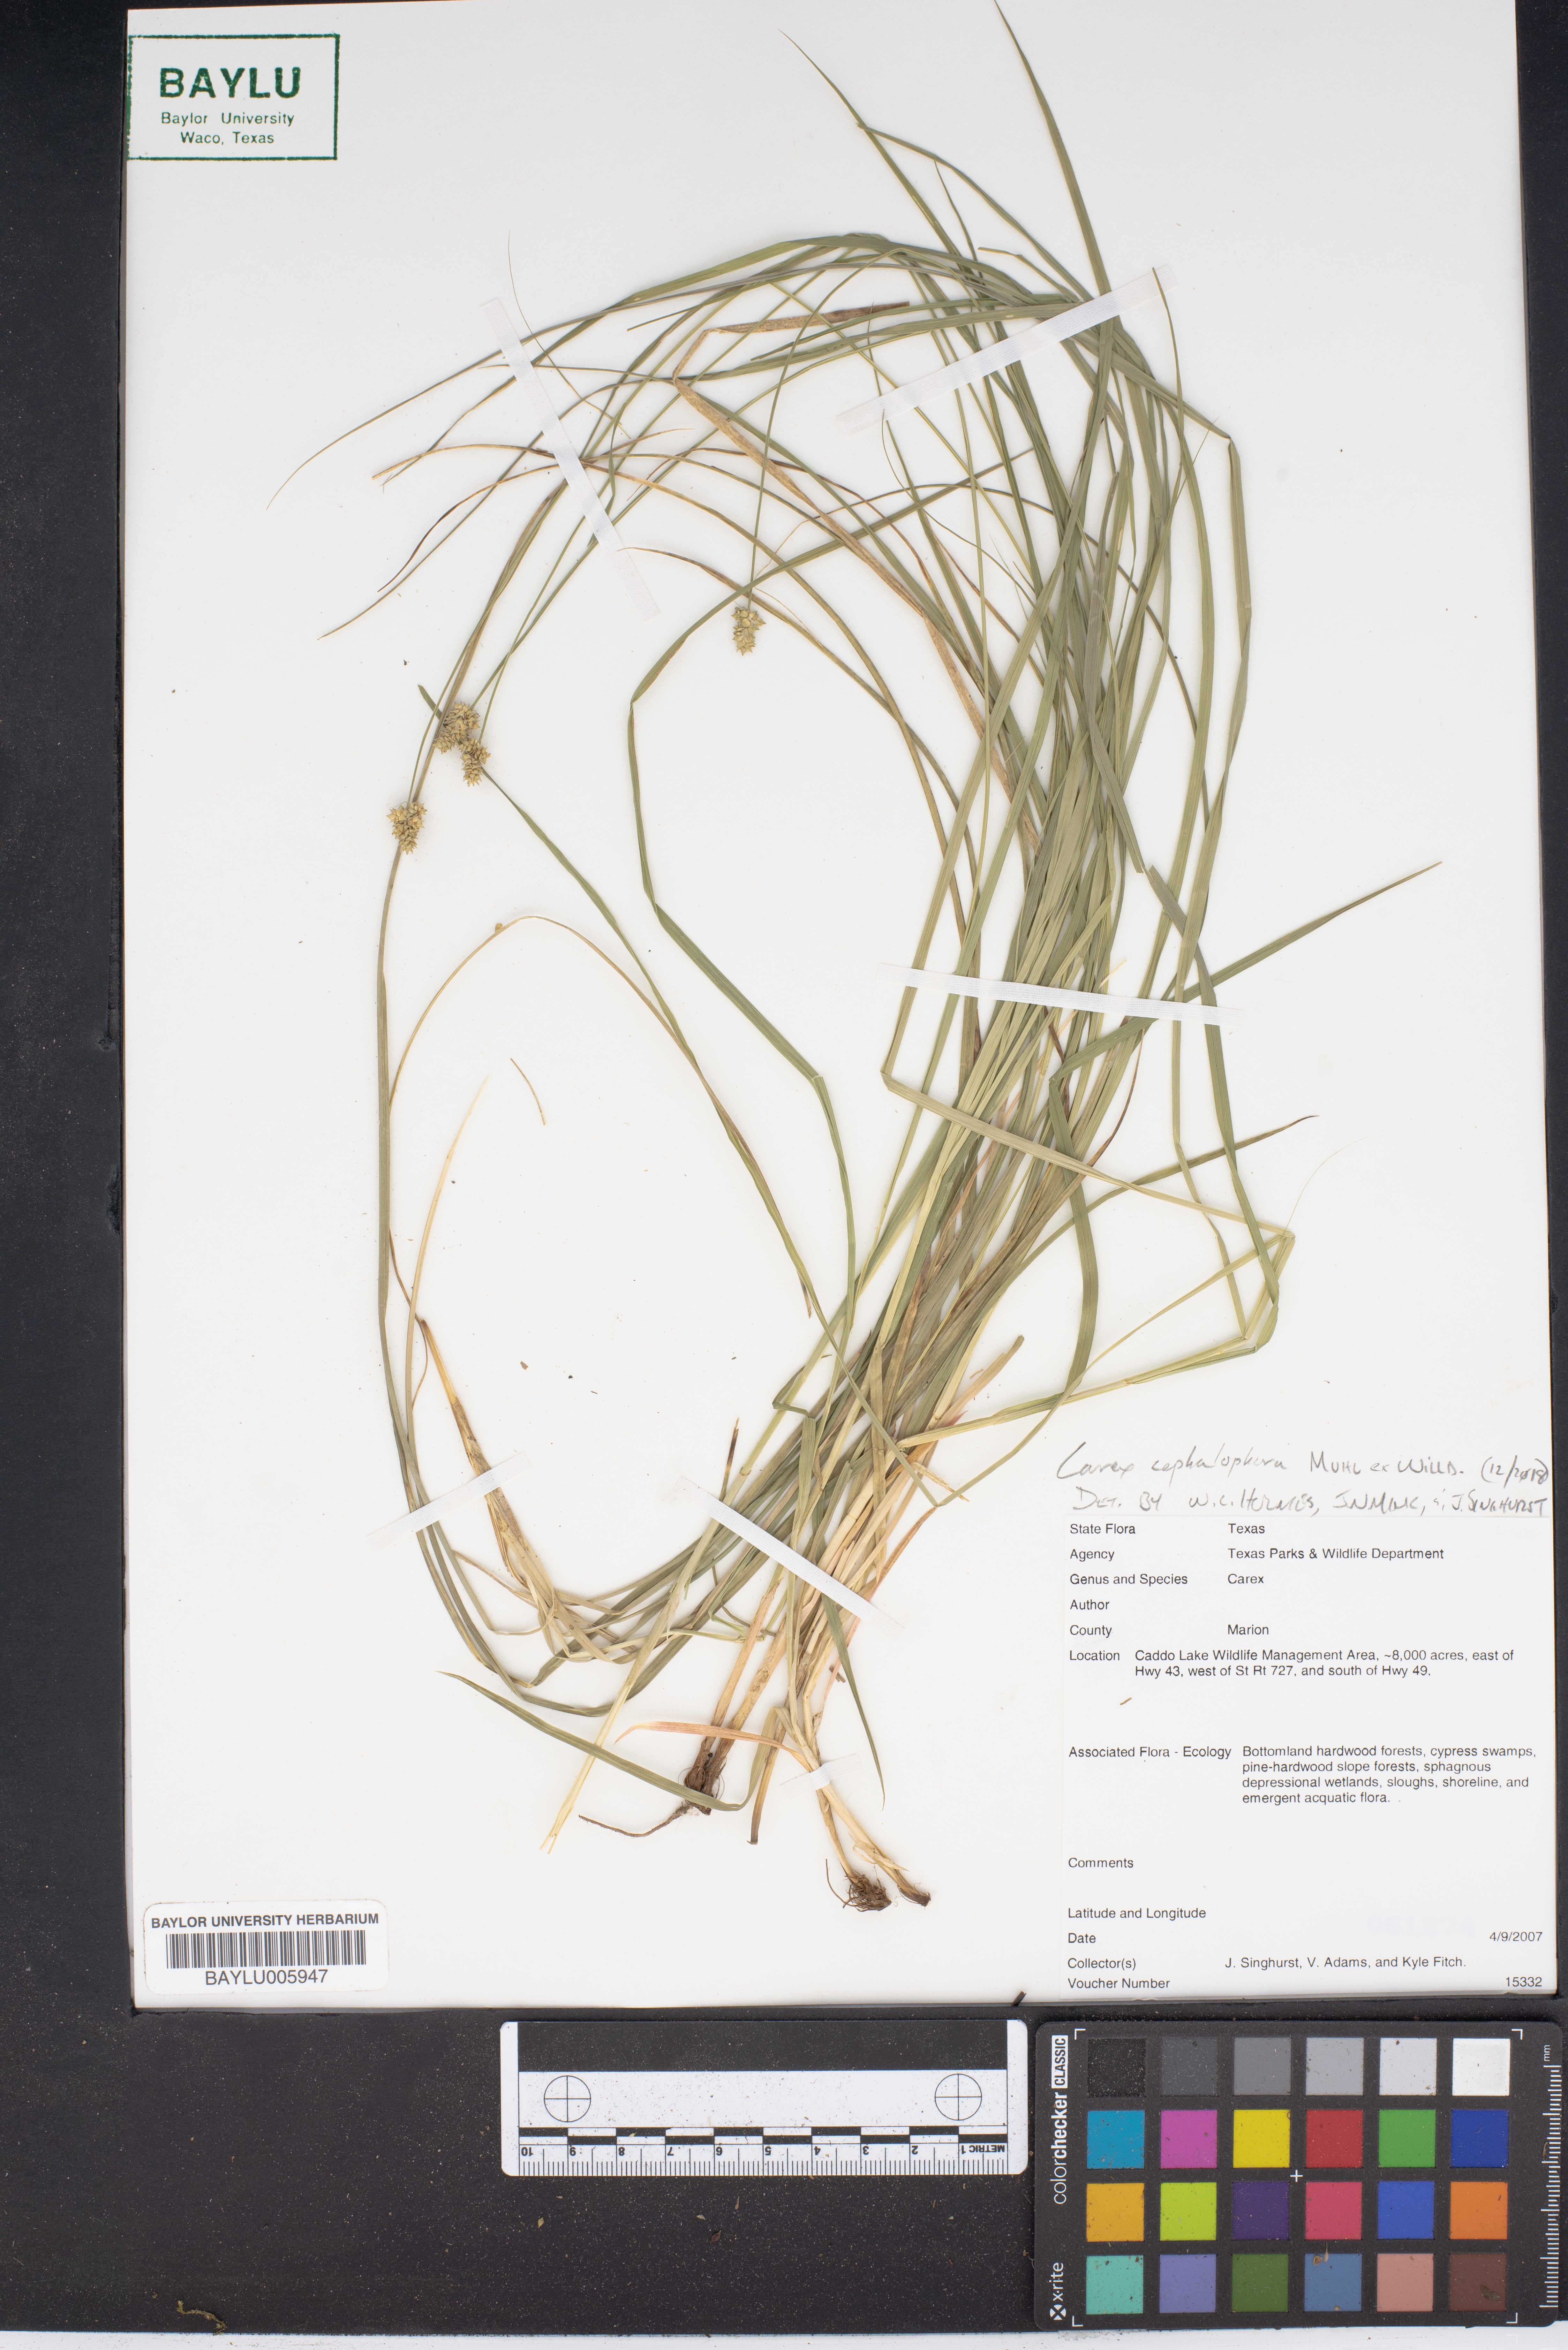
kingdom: Plantae
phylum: Tracheophyta
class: Liliopsida
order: Poales
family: Cyperaceae
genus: Carex
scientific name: Carex
